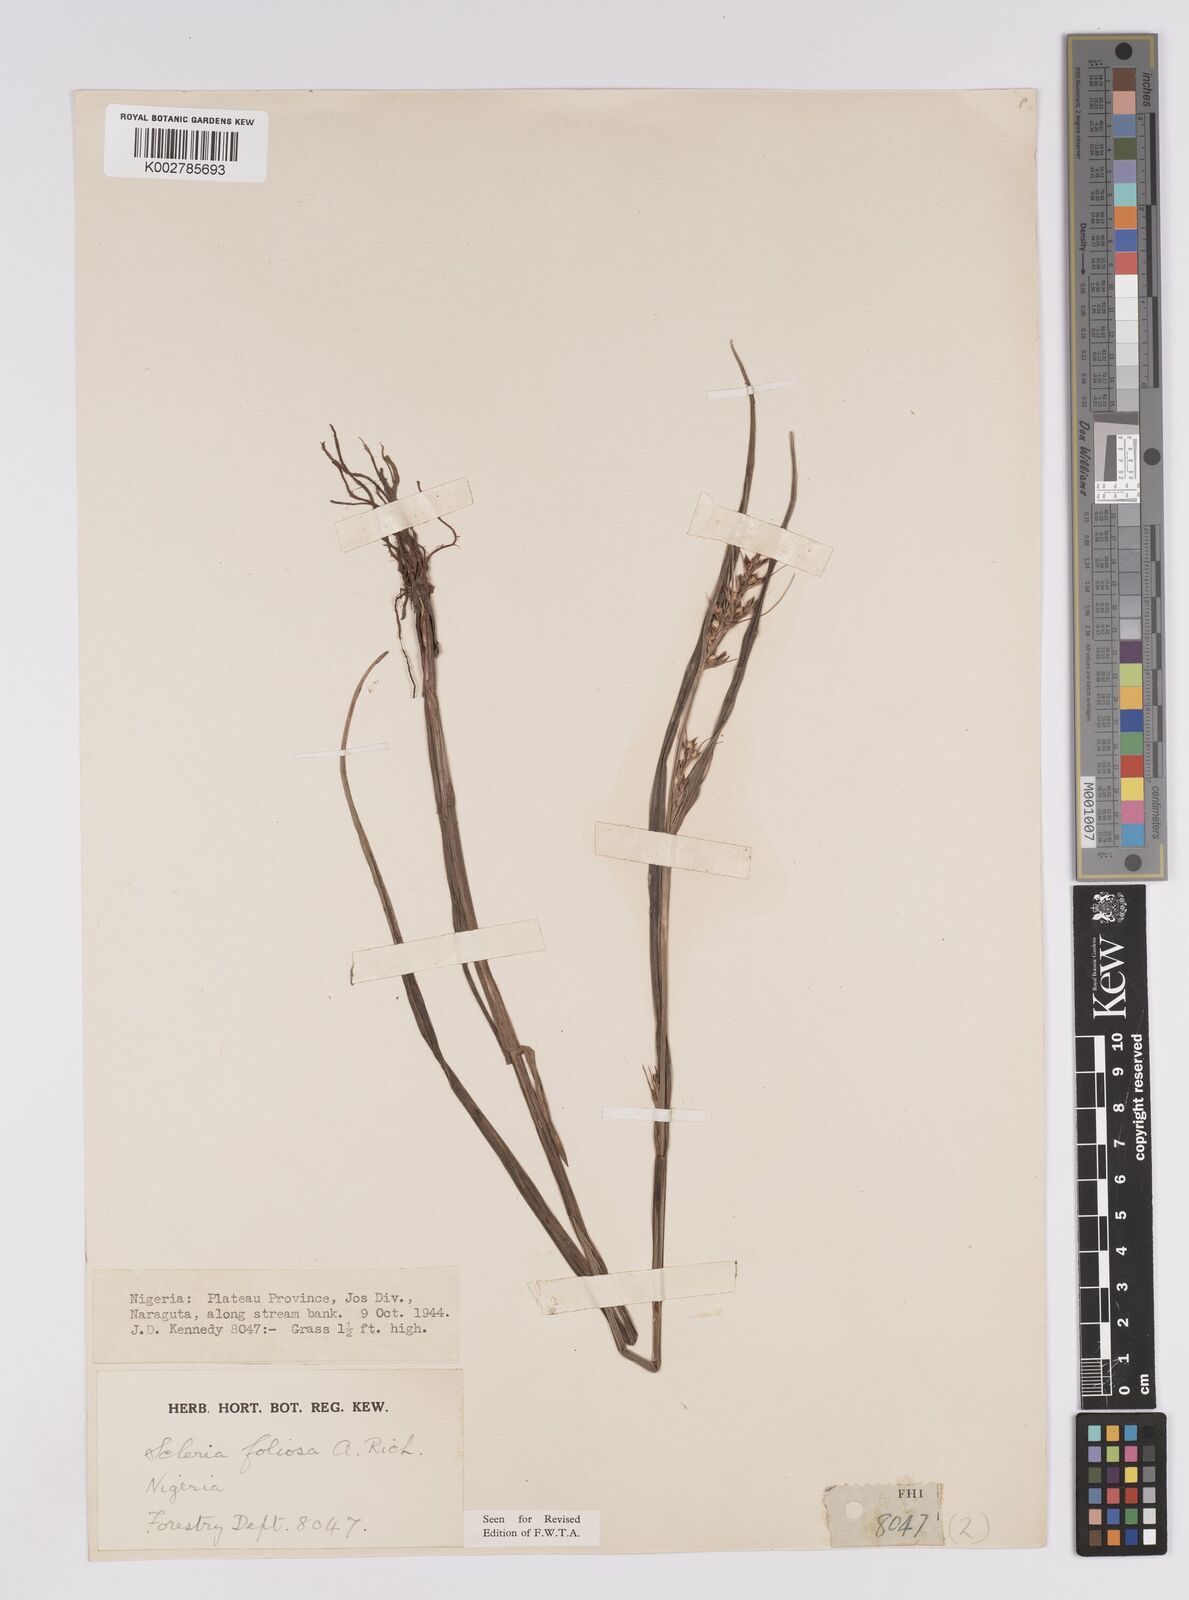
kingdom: Plantae
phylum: Tracheophyta
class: Liliopsida
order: Poales
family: Cyperaceae
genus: Scleria
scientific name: Scleria foliosa
